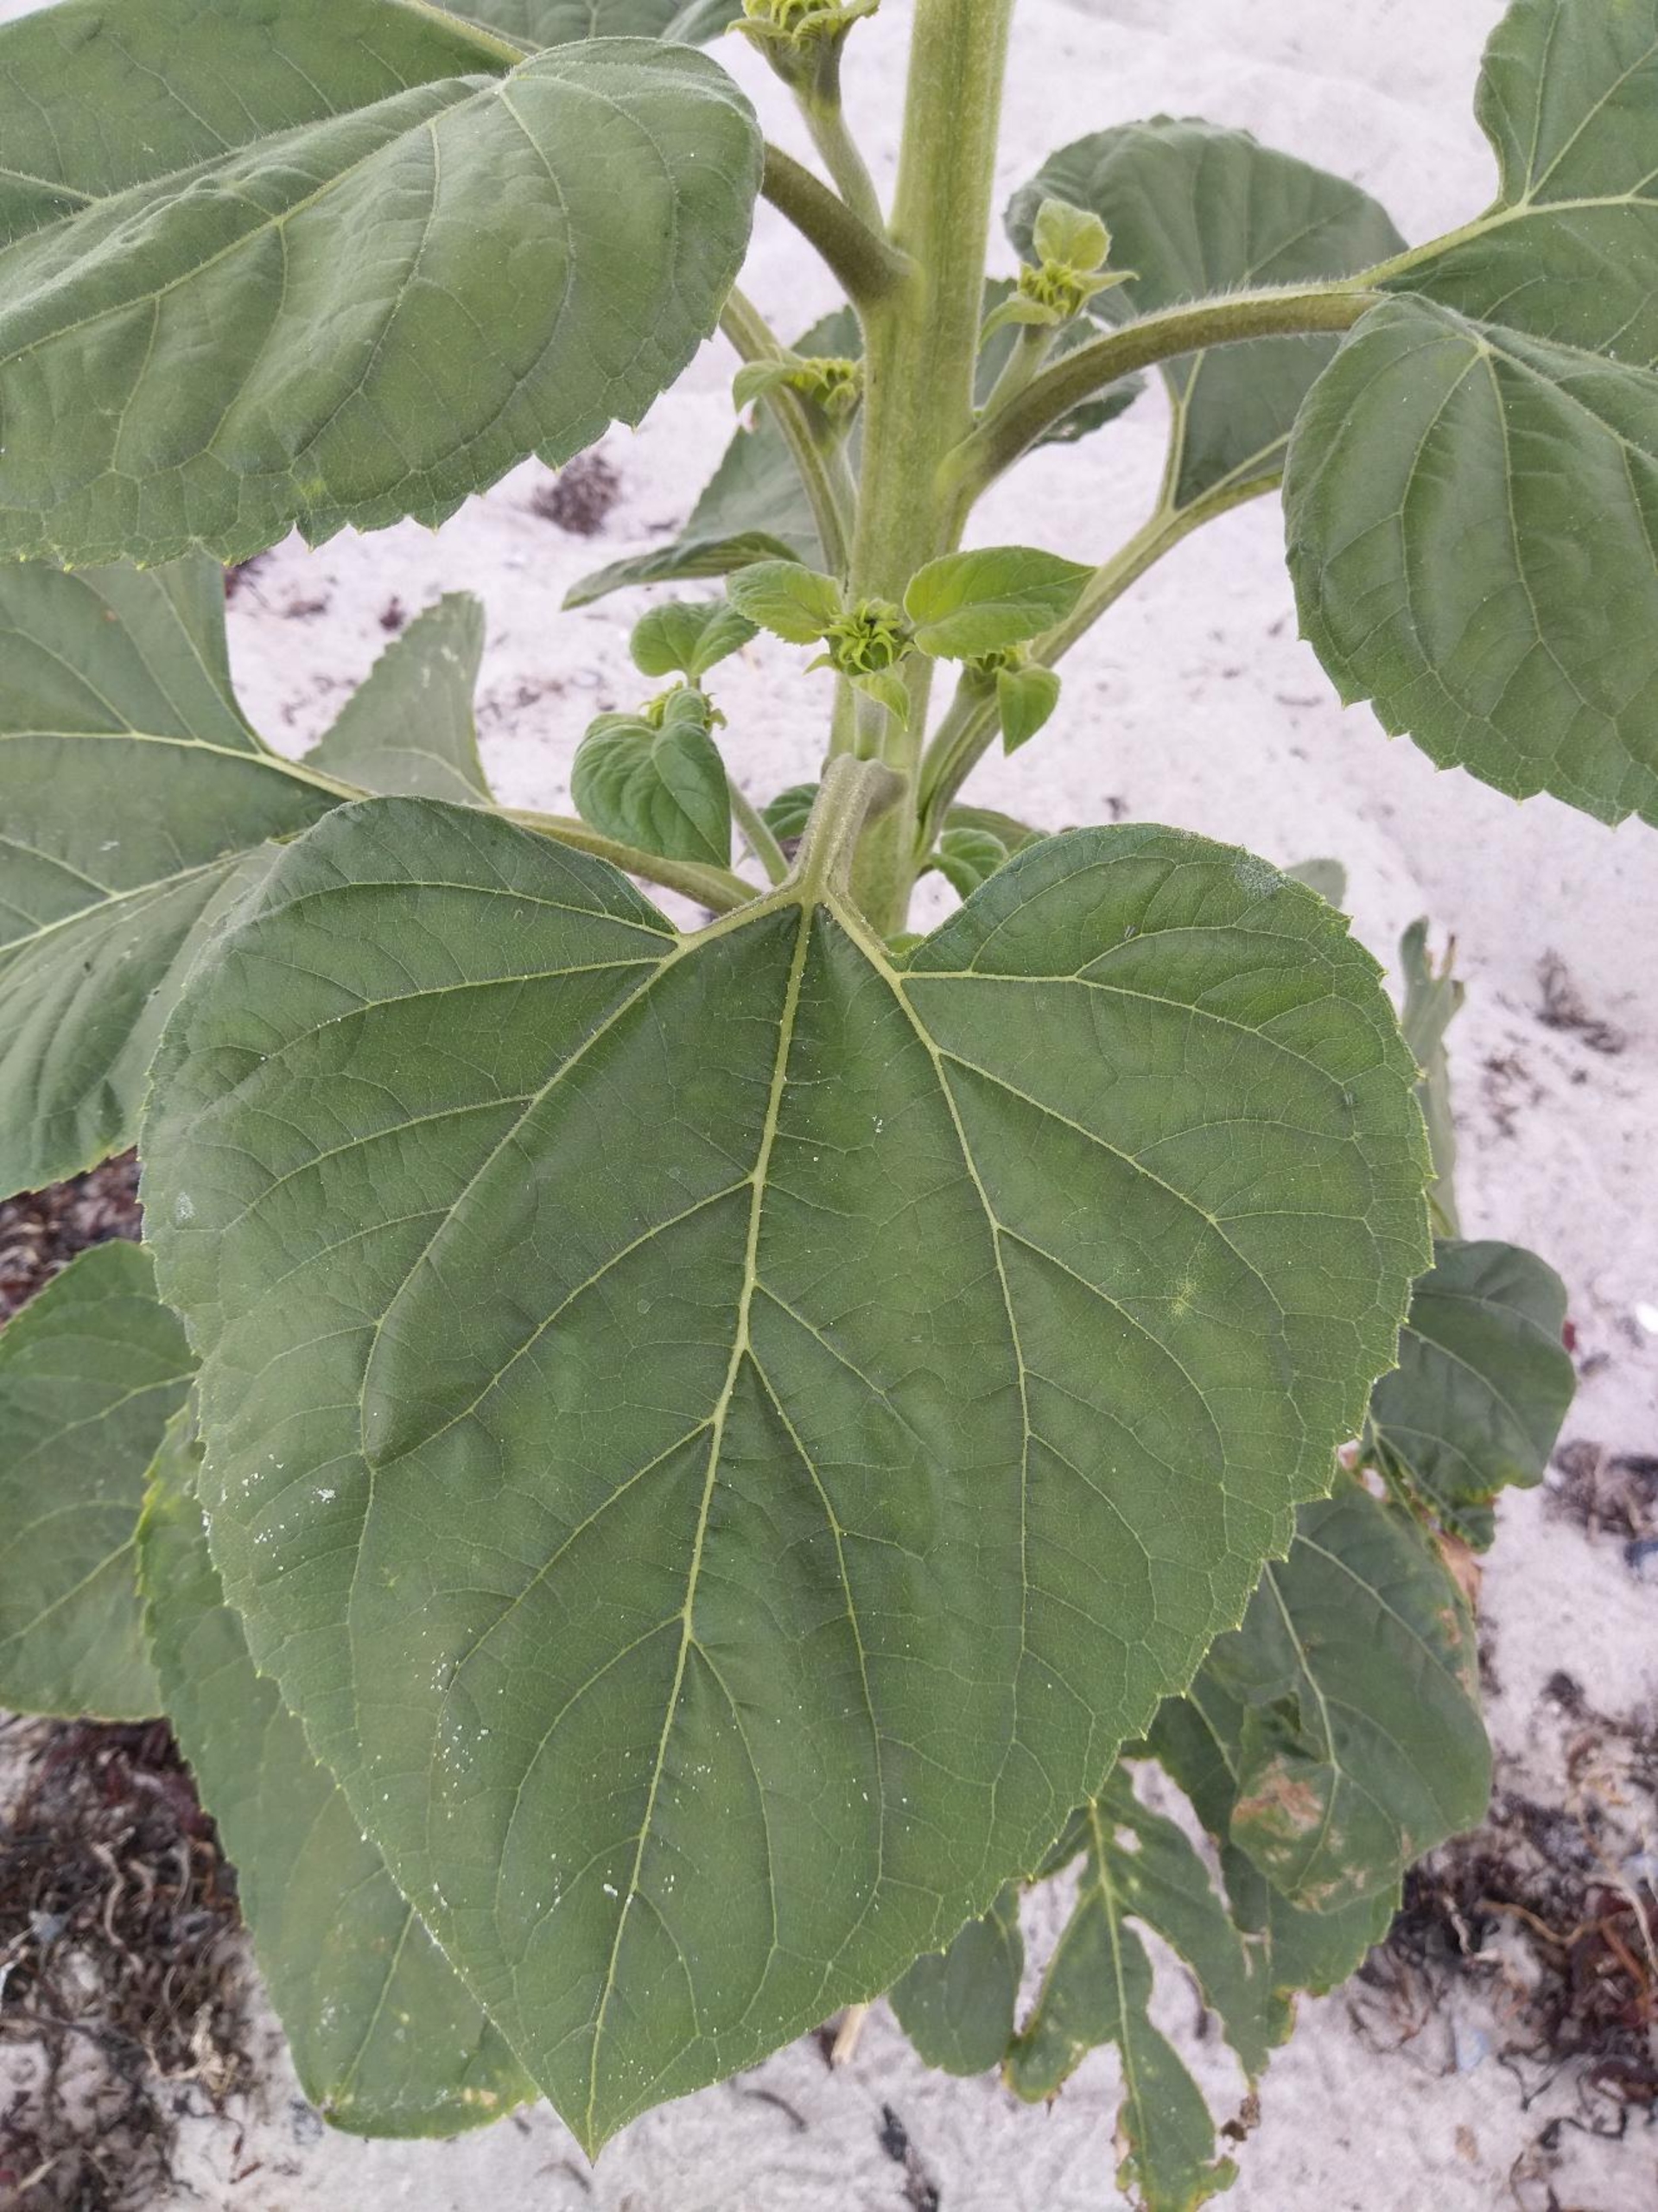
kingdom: Plantae
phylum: Tracheophyta
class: Magnoliopsida
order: Asterales
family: Asteraceae
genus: Helianthus
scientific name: Helianthus annuus
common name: Solsikke
